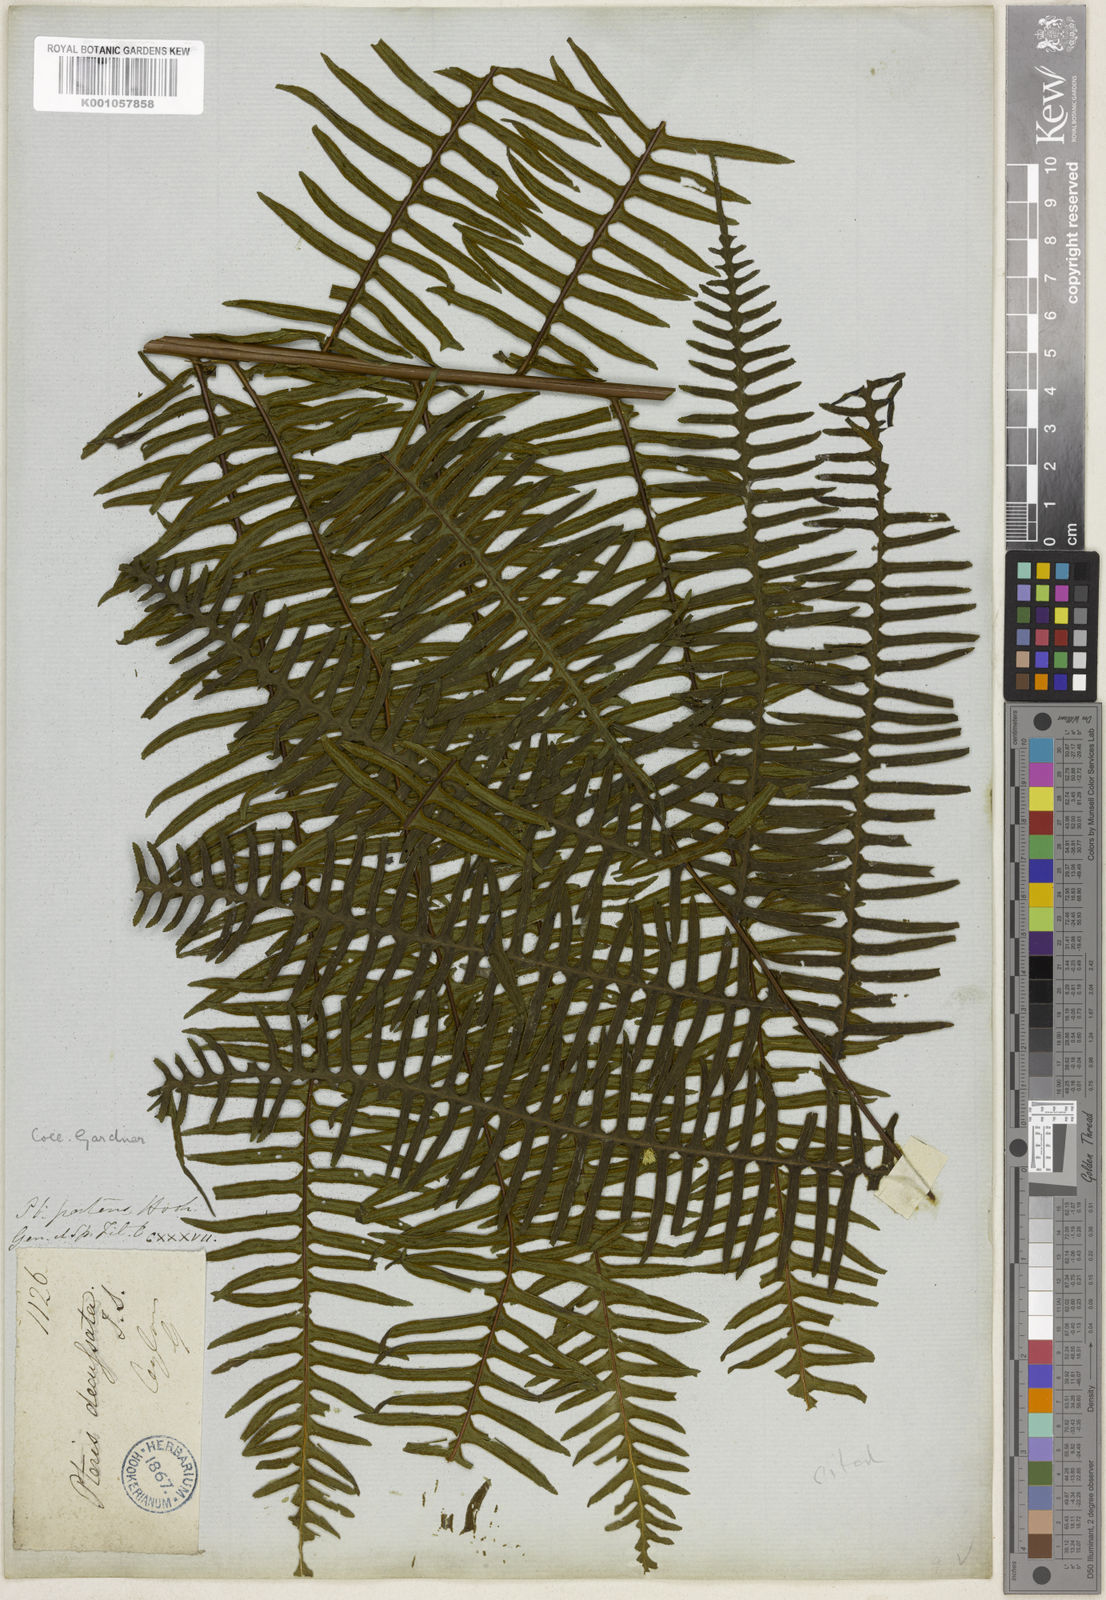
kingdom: Plantae
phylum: Tracheophyta
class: Polypodiopsida
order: Polypodiales
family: Pteridaceae
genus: Pteris
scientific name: Pteris mertensioides
